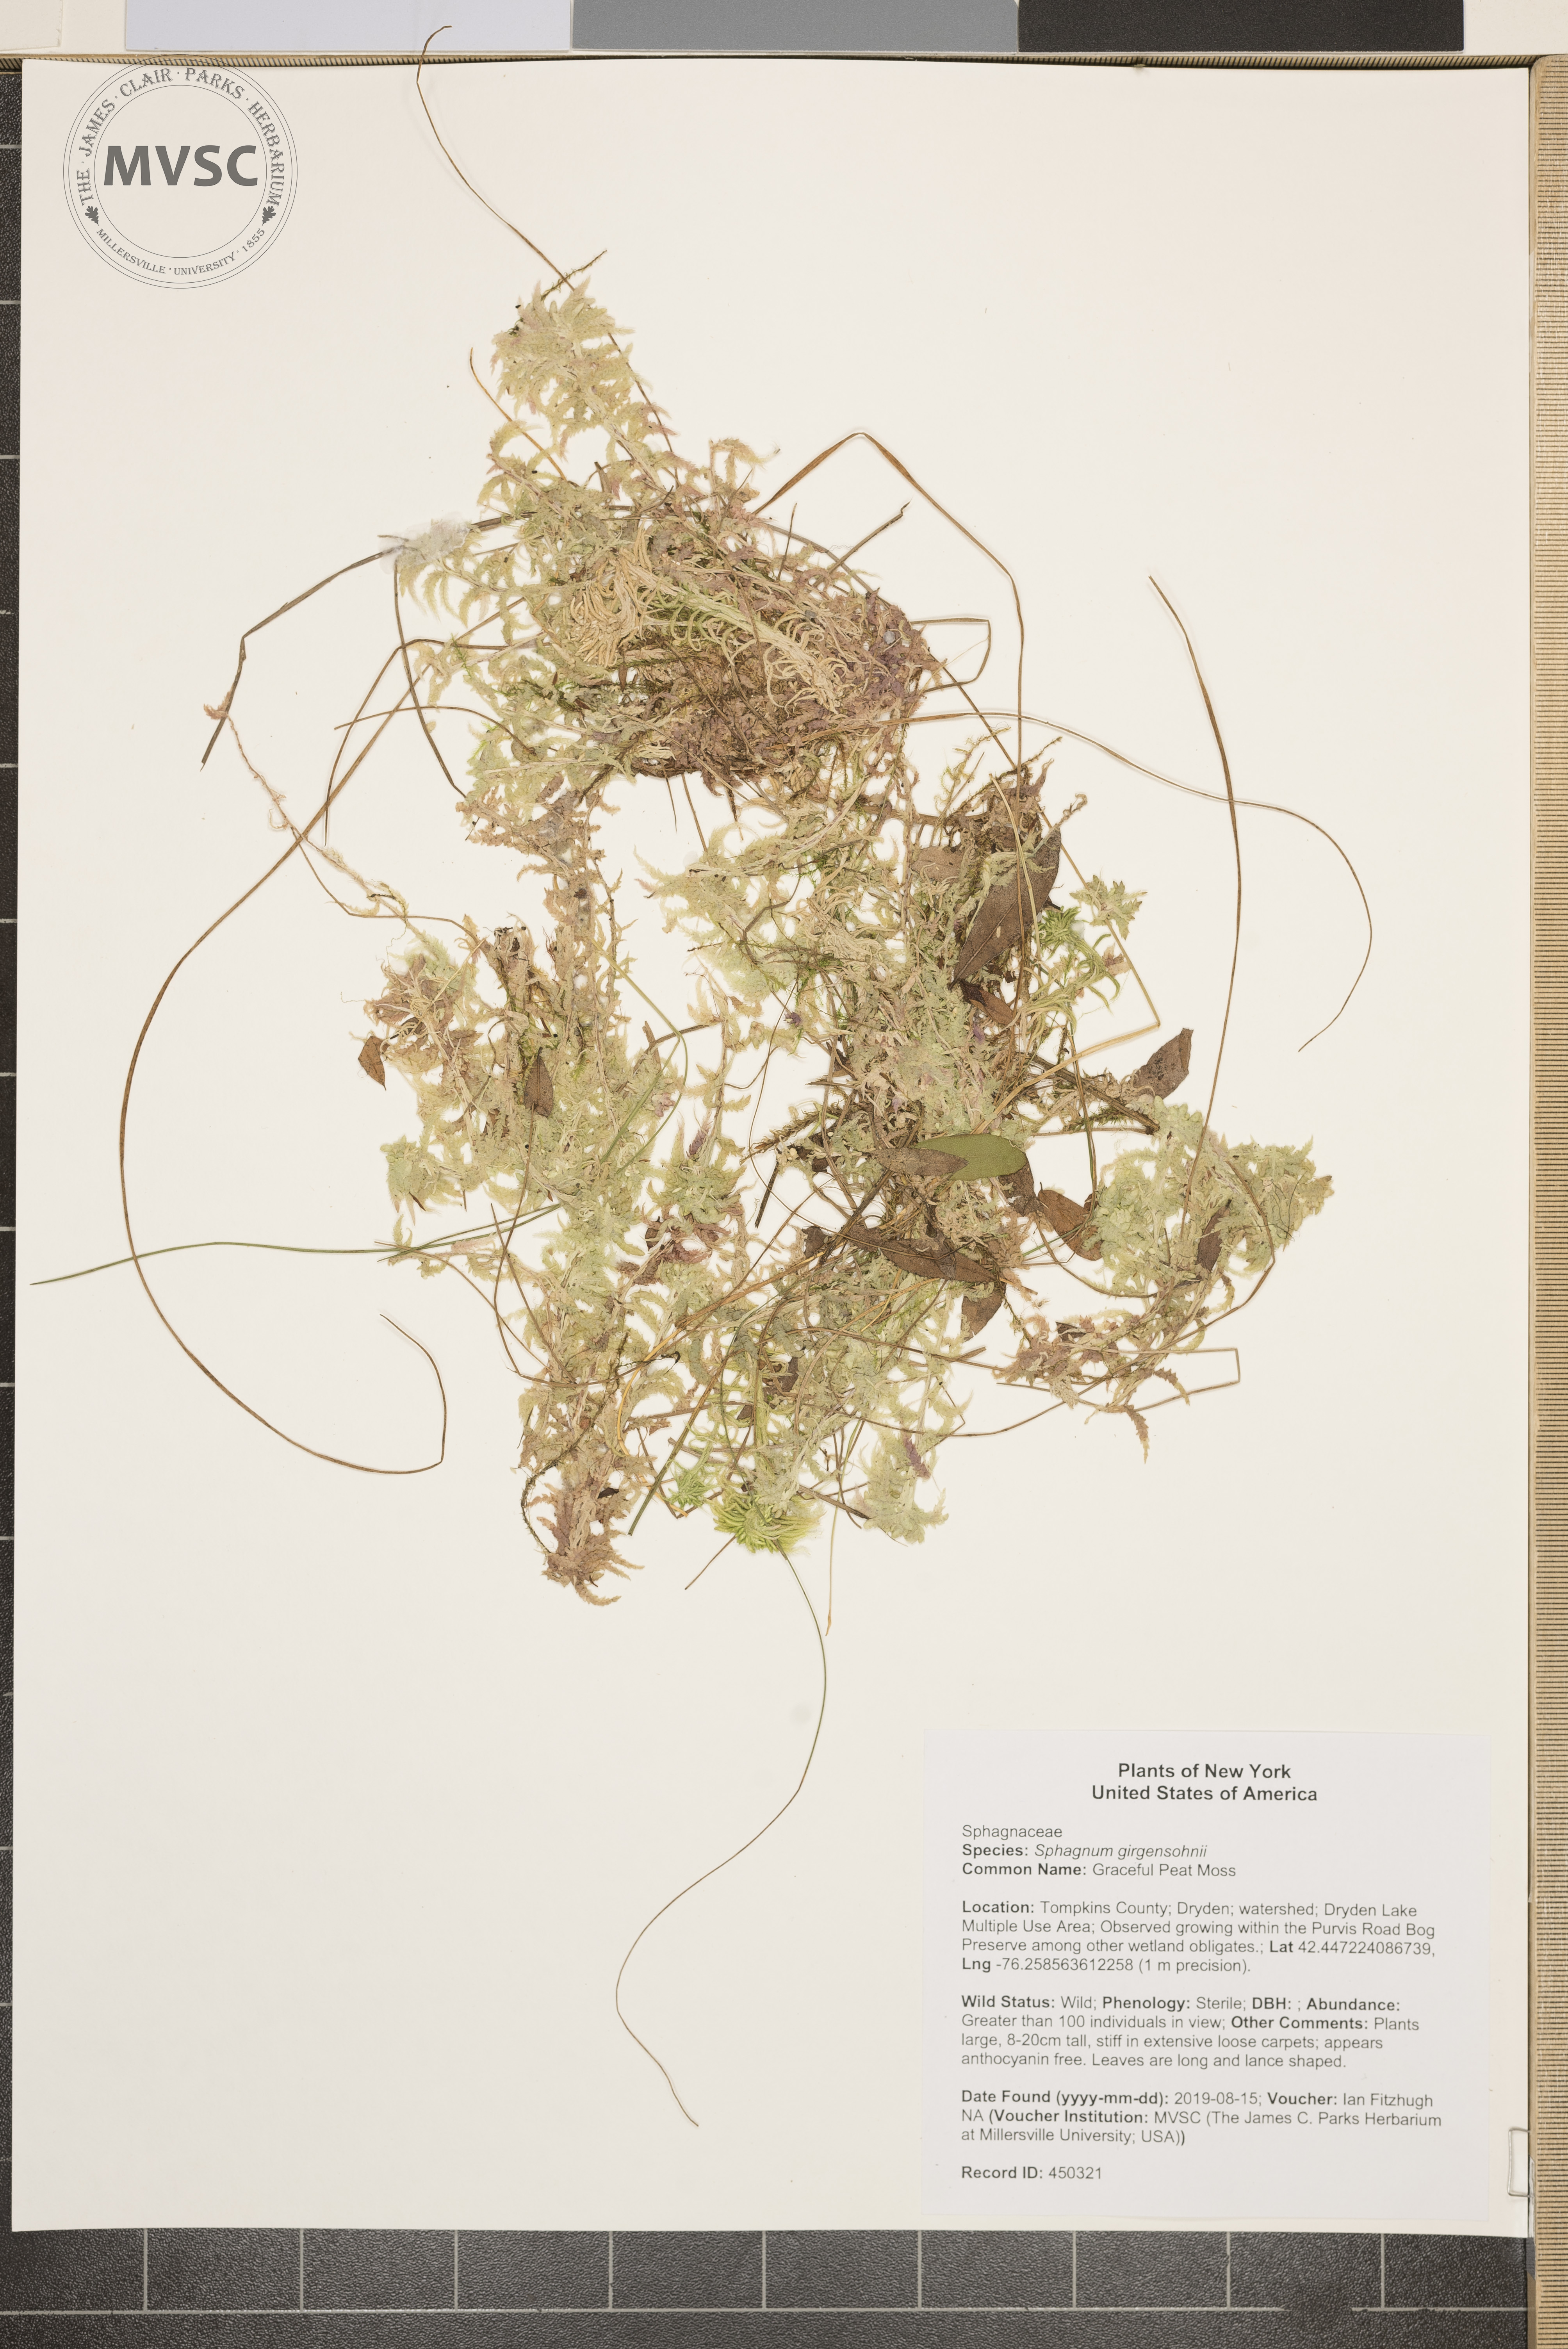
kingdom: Plantae
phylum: Bryophyta
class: Sphagnopsida
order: Sphagnales
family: Sphagnaceae
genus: Sphagnum
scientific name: Sphagnum girgensohnii
